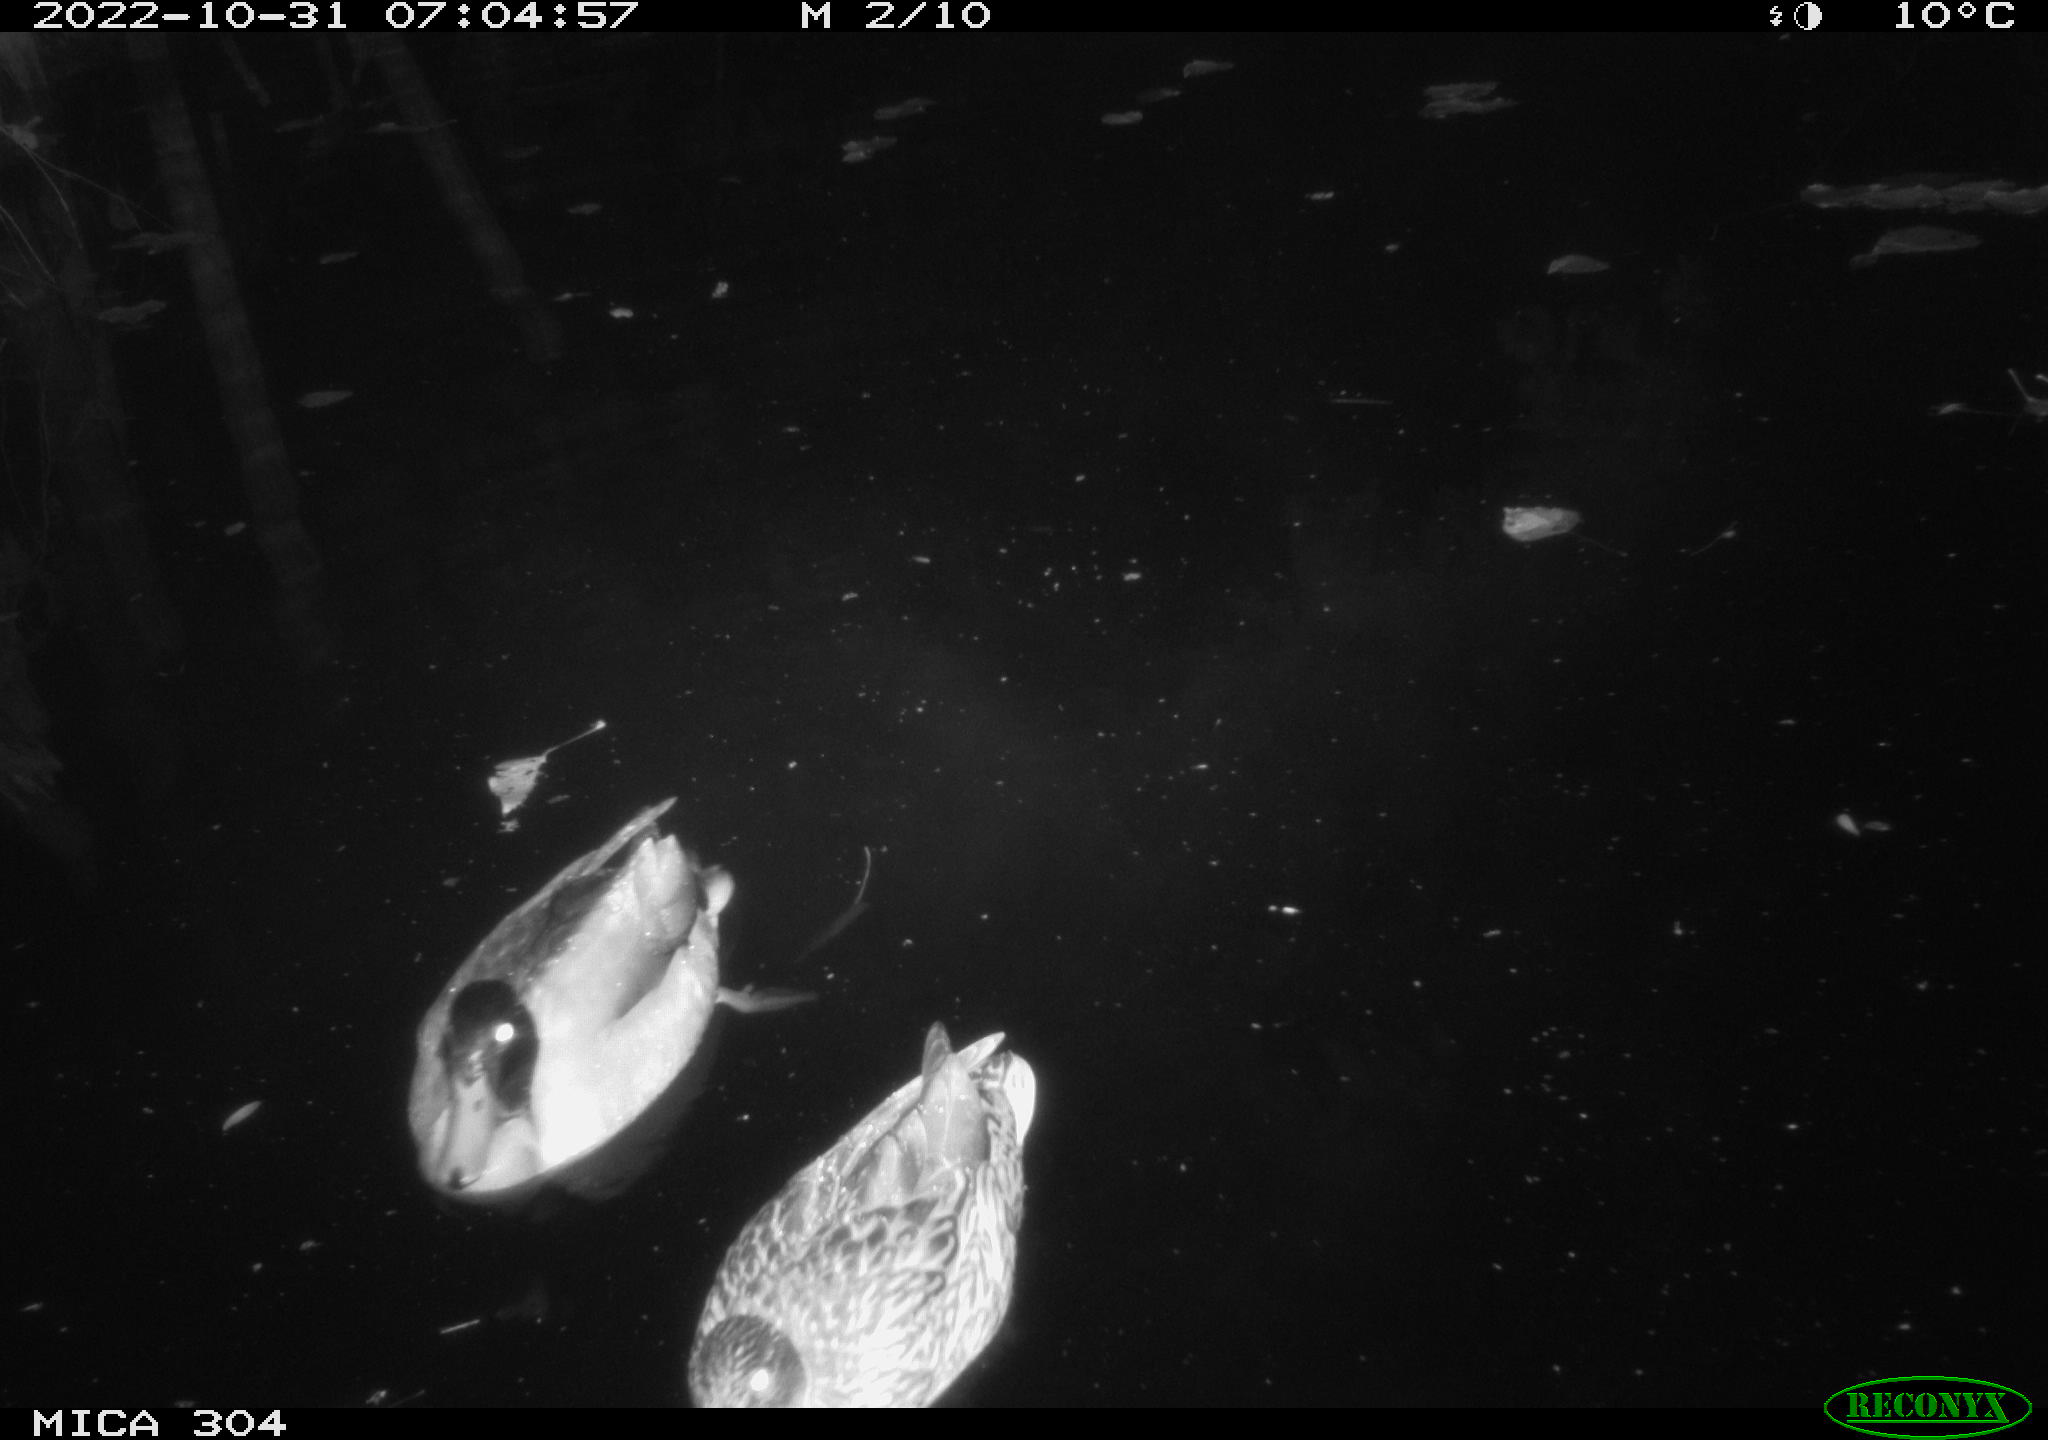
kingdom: Animalia
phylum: Chordata
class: Aves
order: Anseriformes
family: Anatidae
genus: Anas
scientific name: Anas
